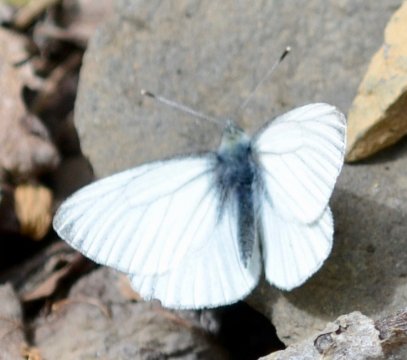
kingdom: Animalia
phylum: Arthropoda
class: Insecta
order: Lepidoptera
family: Pieridae
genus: Pieris
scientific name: Pieris angelika
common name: Arctic White
